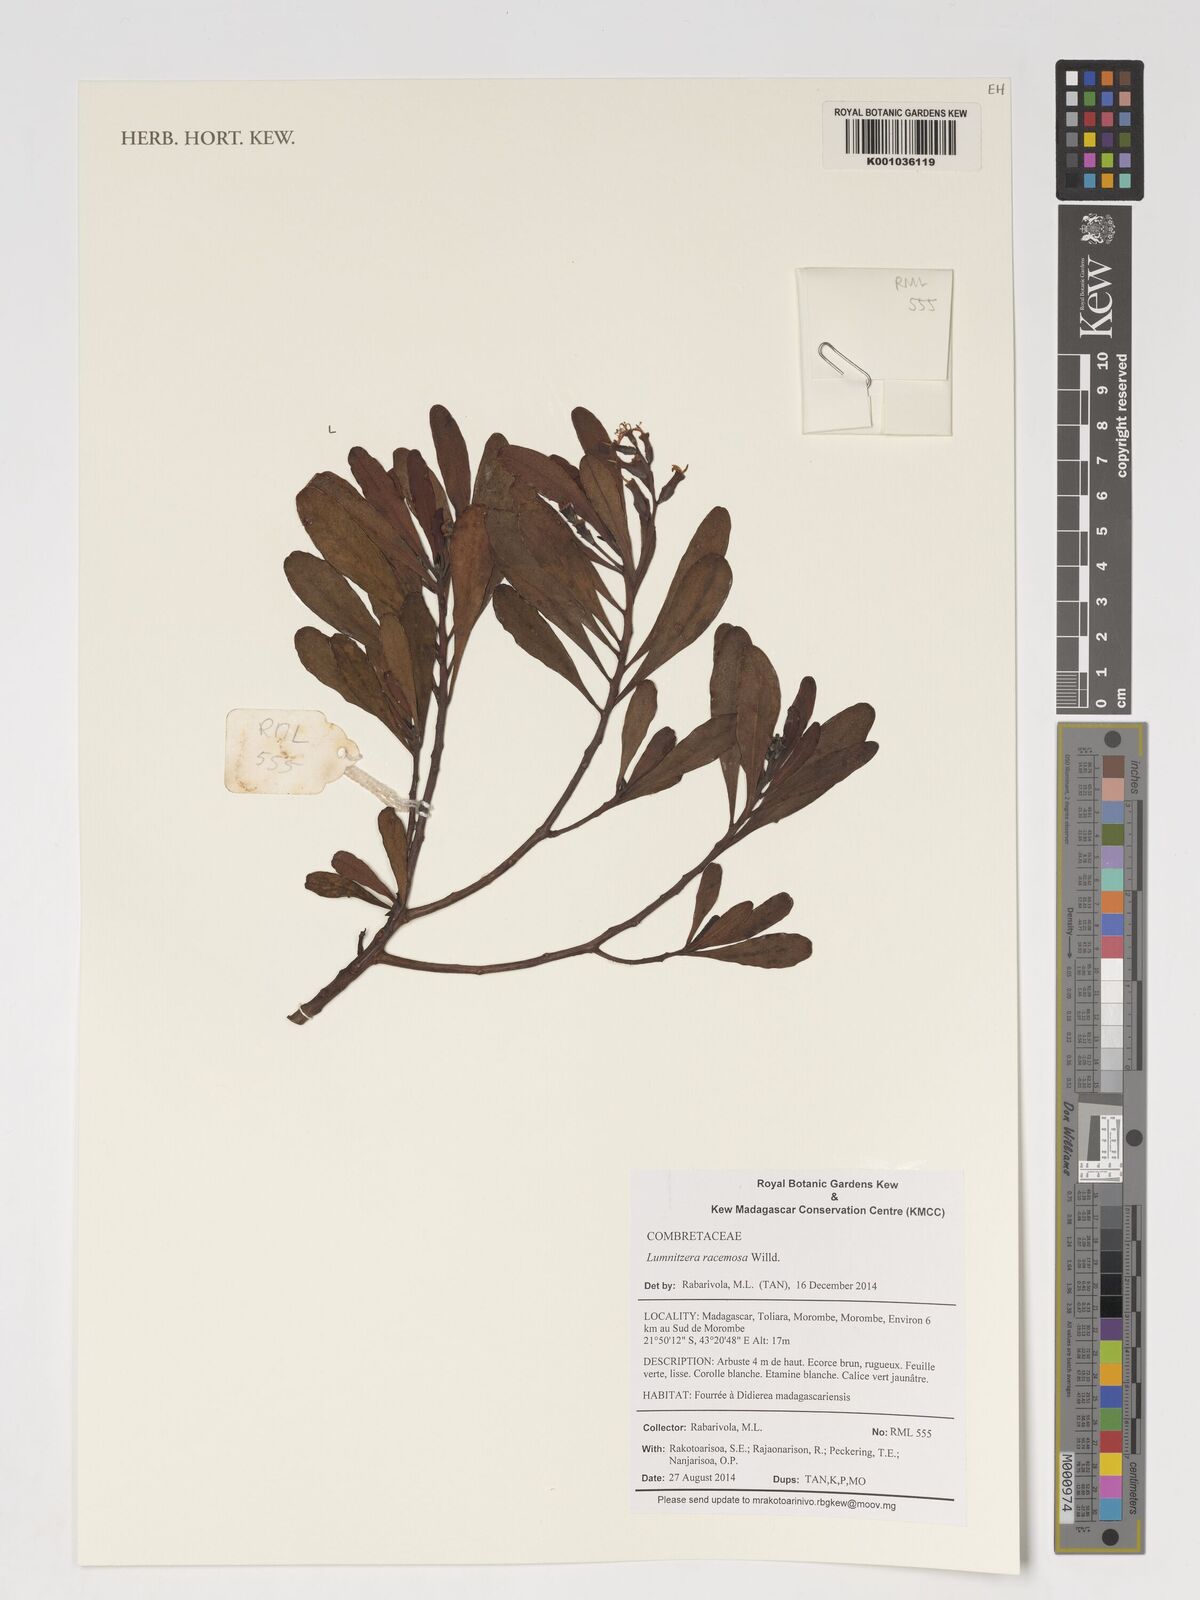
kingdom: Plantae
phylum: Tracheophyta
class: Magnoliopsida
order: Myrtales
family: Combretaceae
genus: Lumnitzera
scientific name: Lumnitzera racemosa
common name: White-flowered black mangrove
